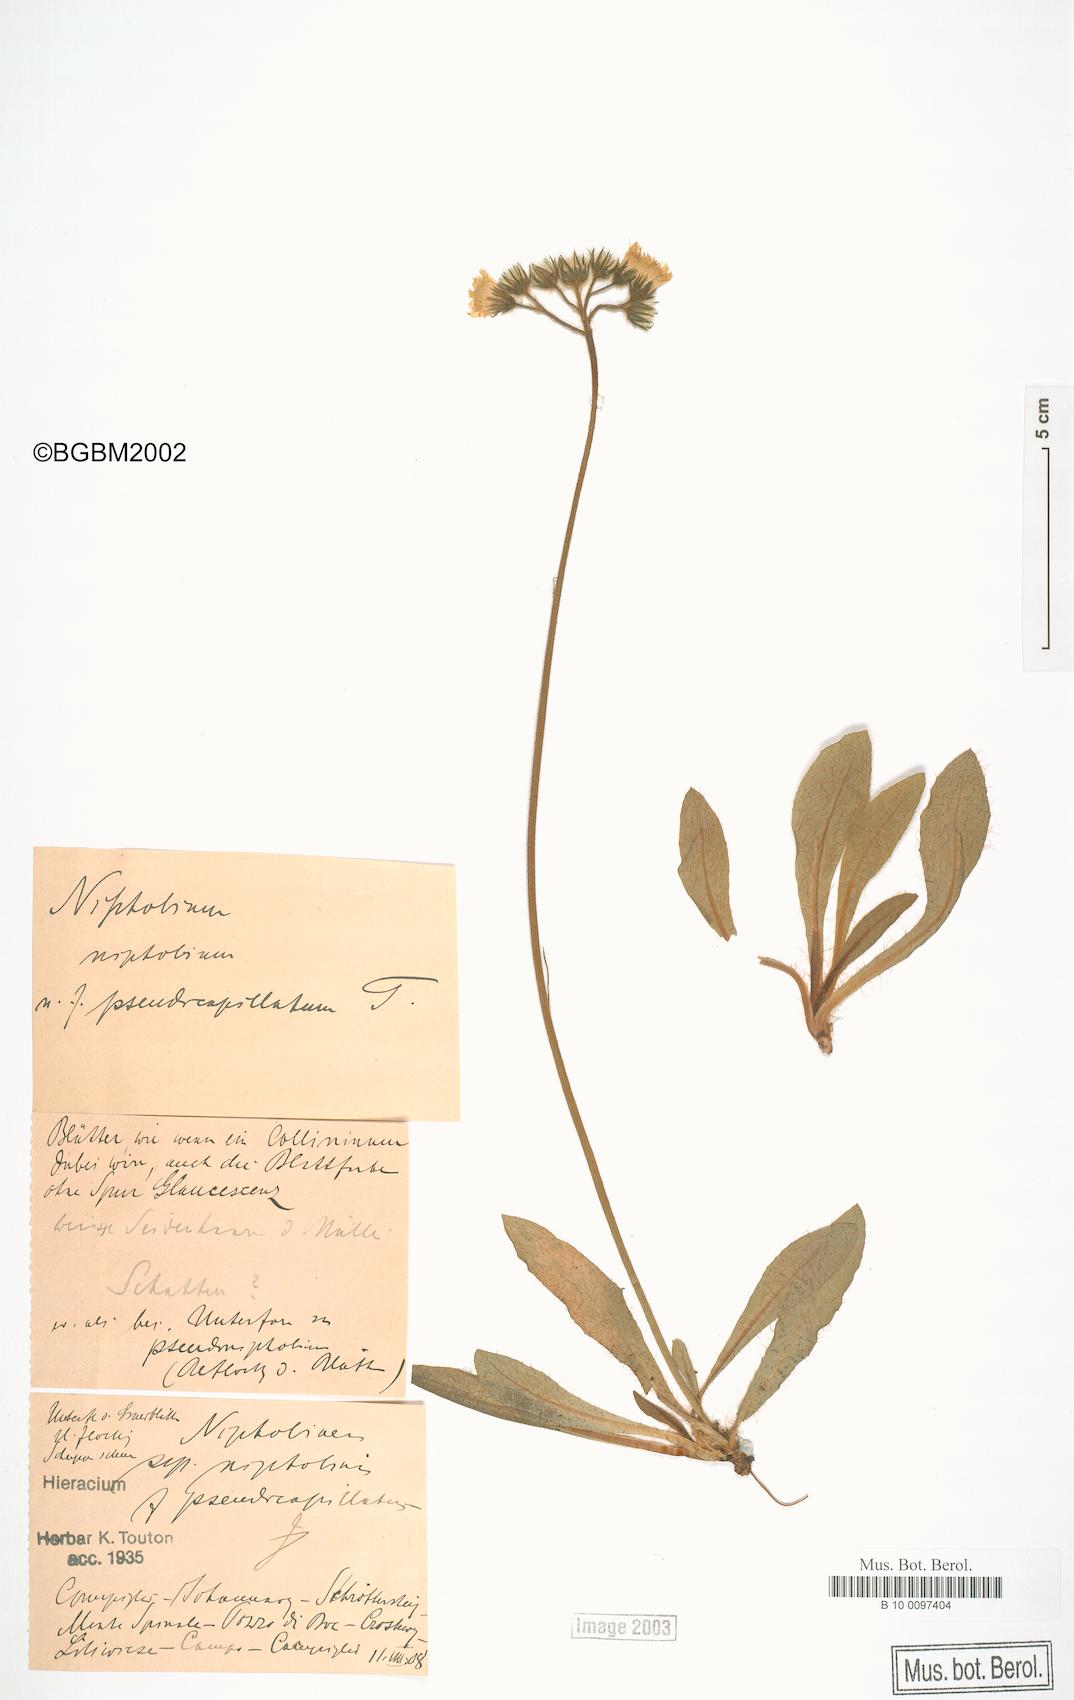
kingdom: Plantae
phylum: Tracheophyta
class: Magnoliopsida
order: Asterales
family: Asteraceae
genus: Pilosella
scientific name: Pilosella corymbuloides
